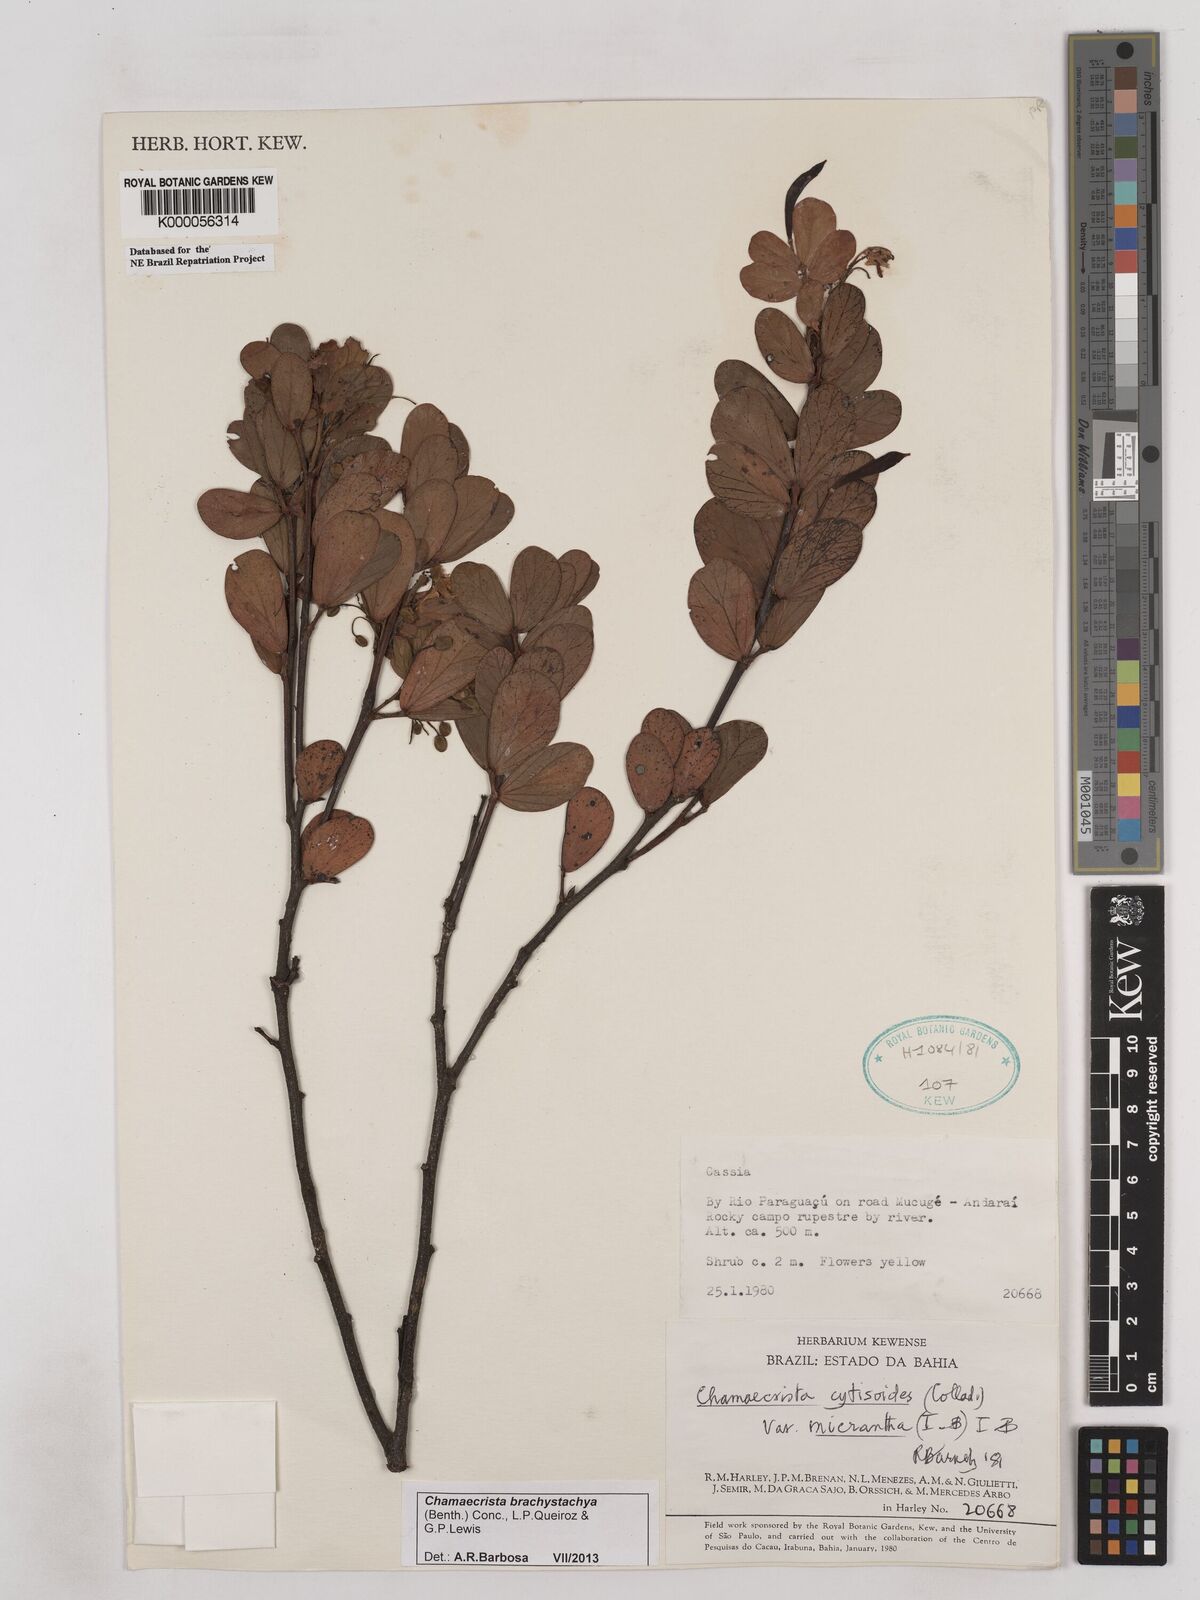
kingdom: Plantae
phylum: Tracheophyta
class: Magnoliopsida
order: Fabales
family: Fabaceae
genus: Chamaecrista
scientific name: Chamaecrista confertiformis
